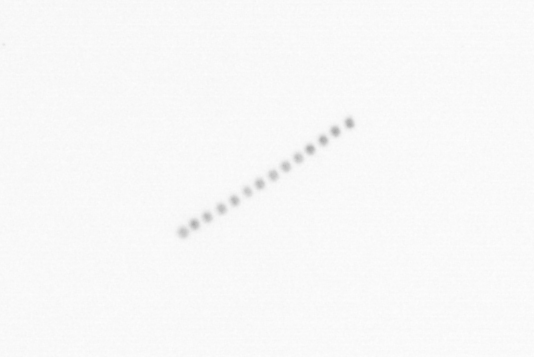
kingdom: Chromista
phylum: Ochrophyta
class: Bacillariophyceae
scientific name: Bacillariophyceae
